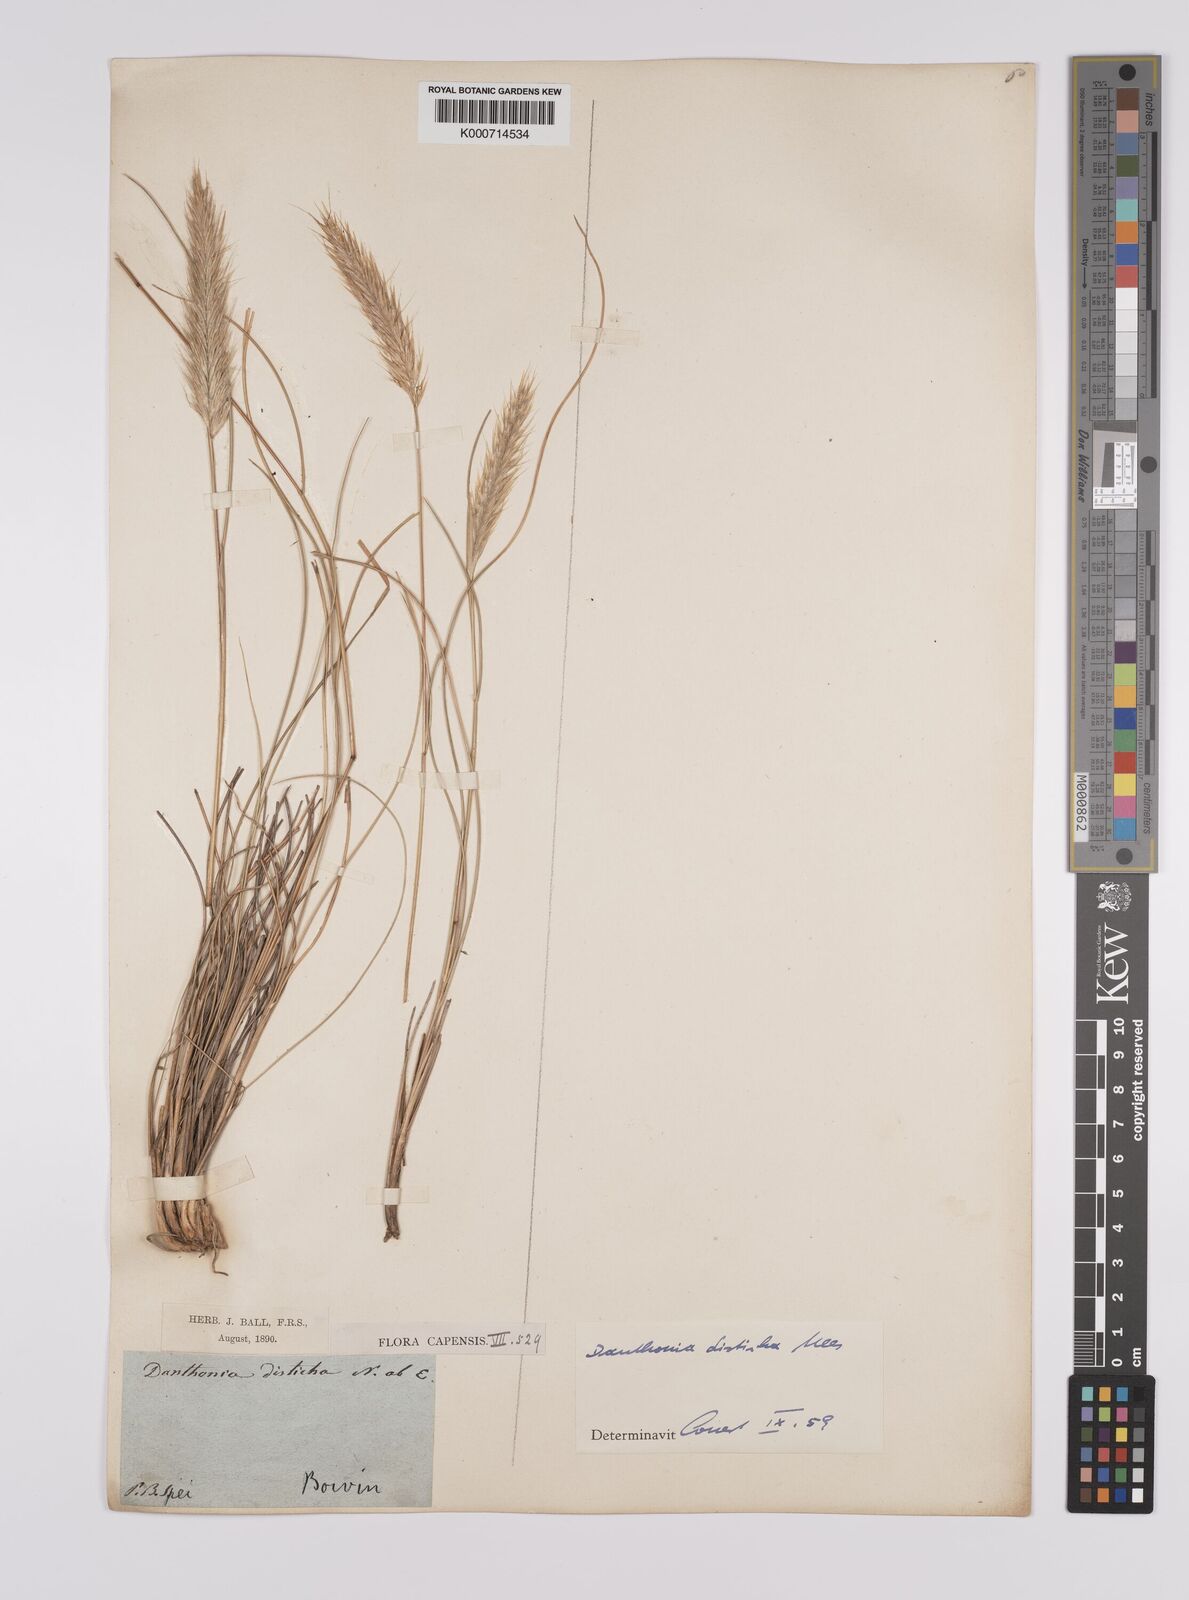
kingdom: Plantae
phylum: Tracheophyta
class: Liliopsida
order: Poales
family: Poaceae
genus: Tenaxia
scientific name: Tenaxia disticha
